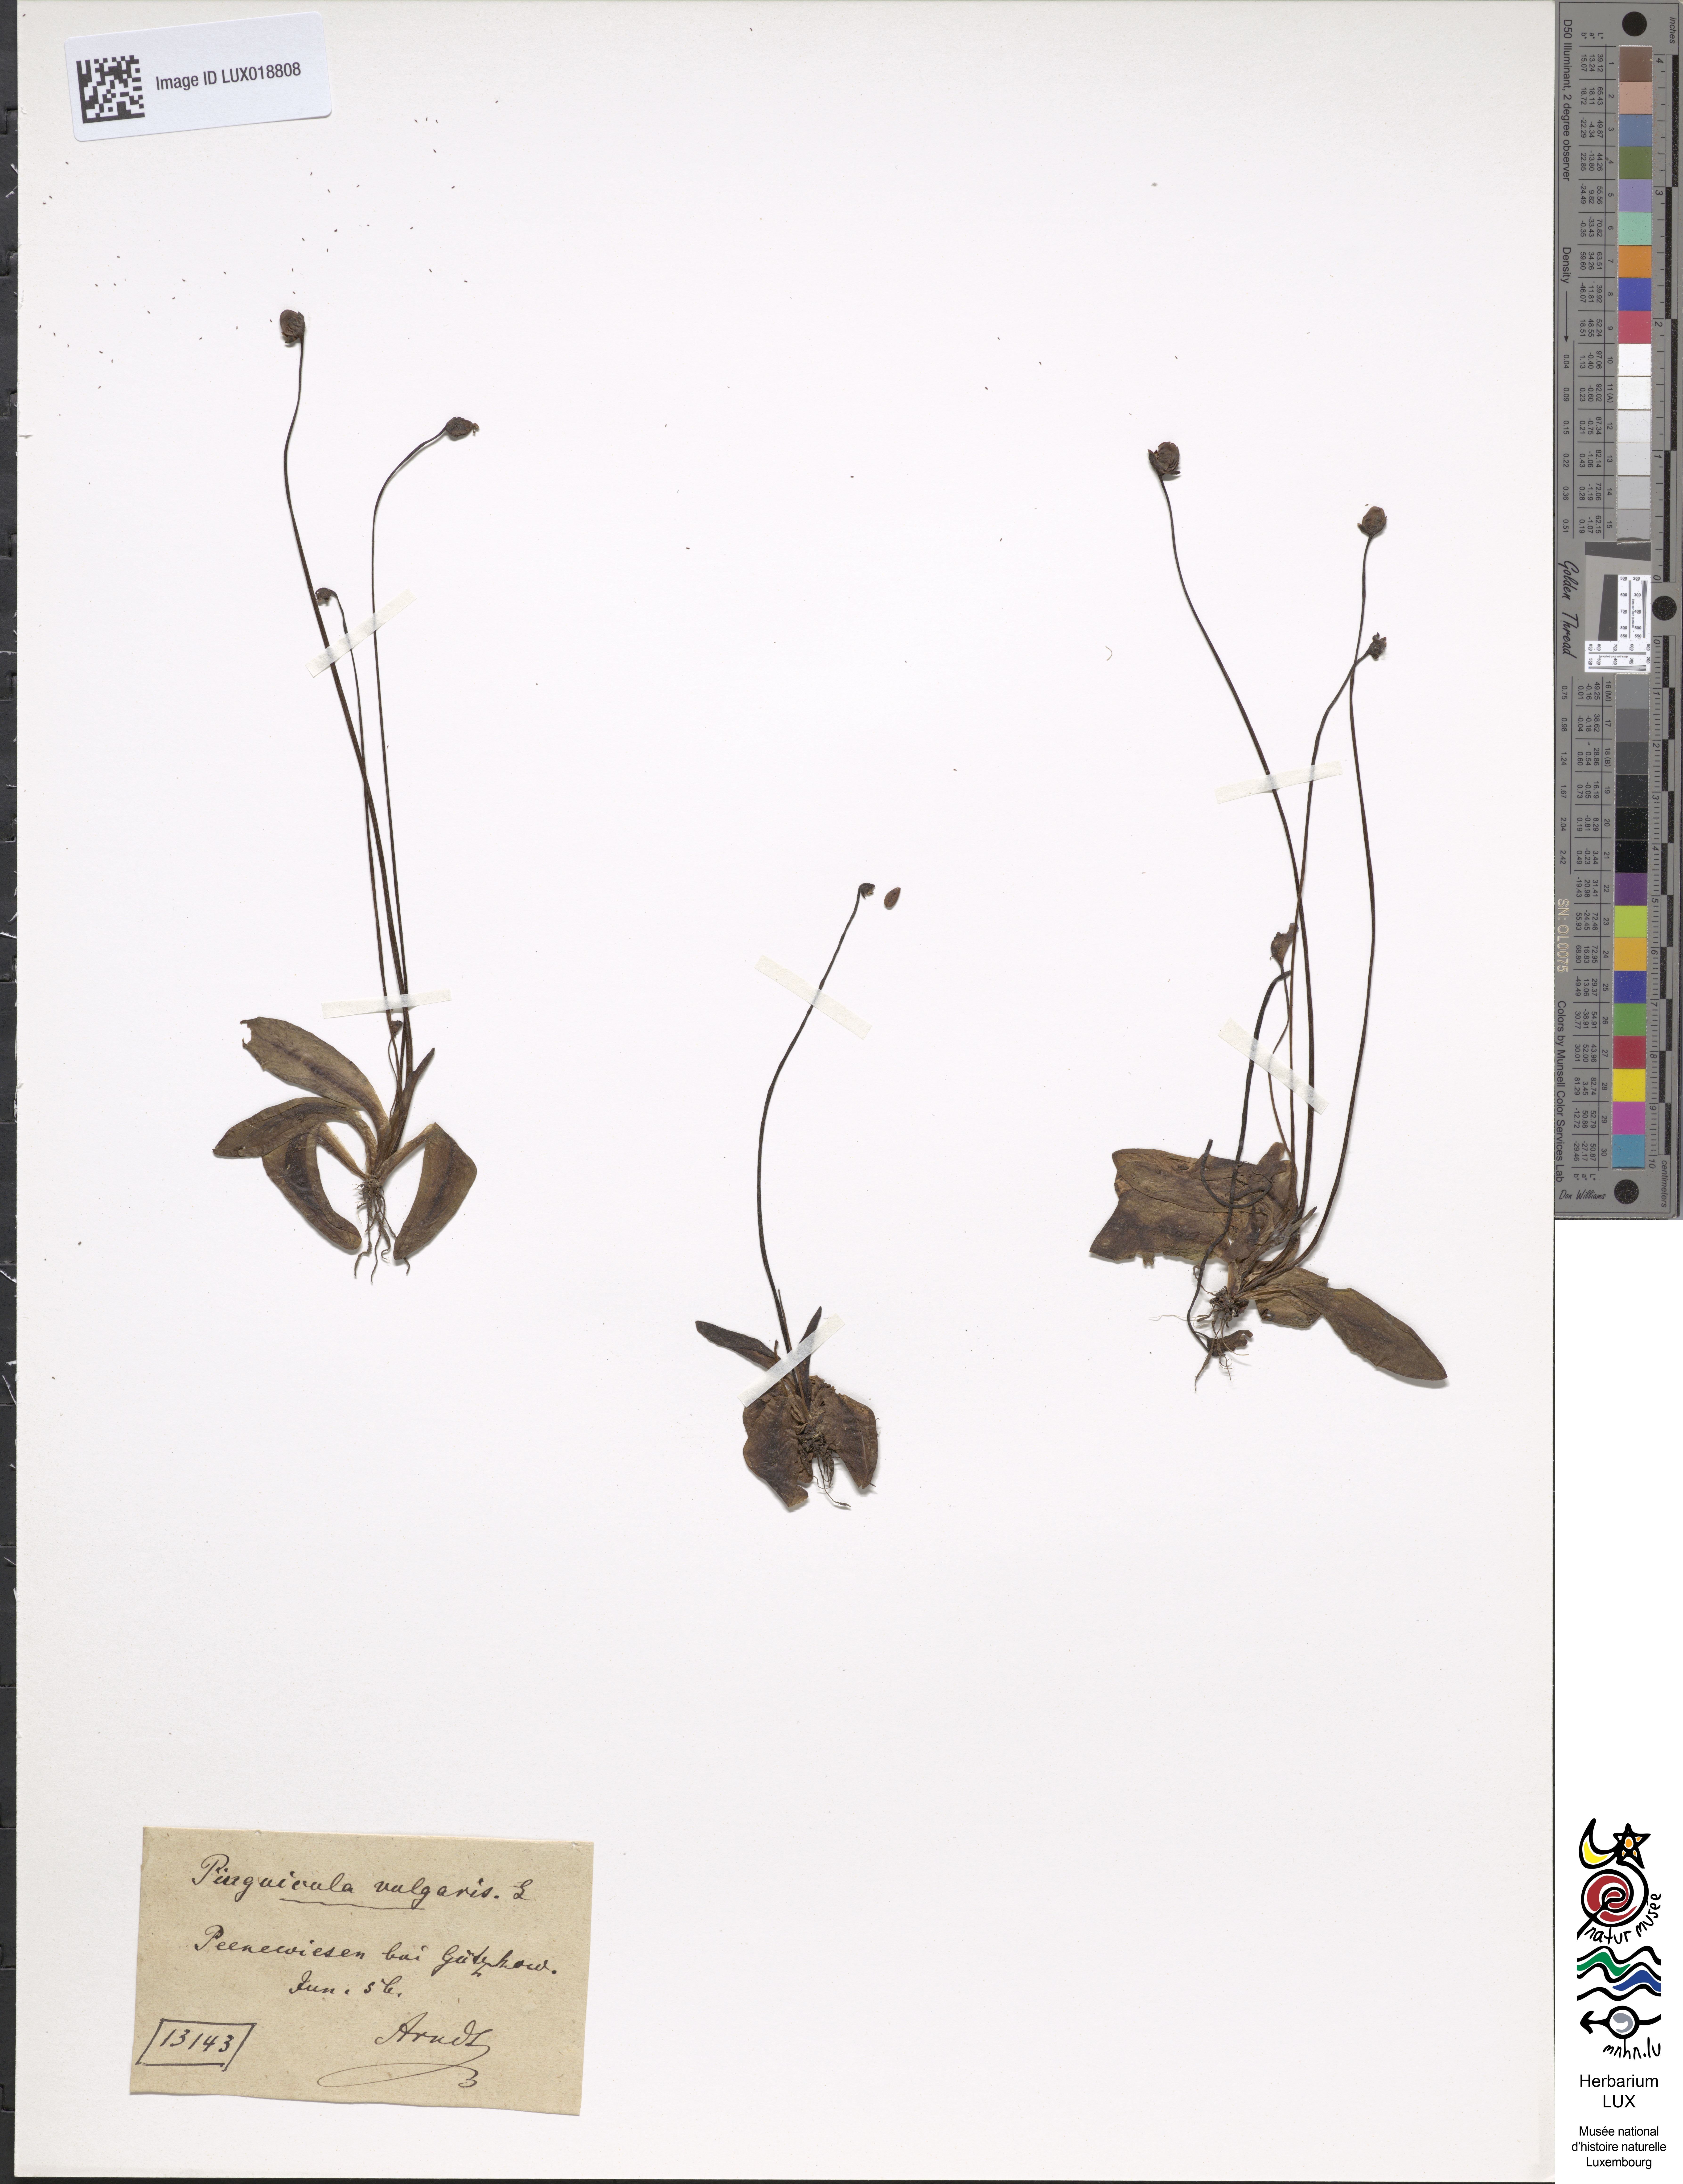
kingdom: Plantae
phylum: Tracheophyta
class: Magnoliopsida
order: Lamiales
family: Lentibulariaceae
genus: Pinguicula
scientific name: Pinguicula vulgaris
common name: Common butterwort
